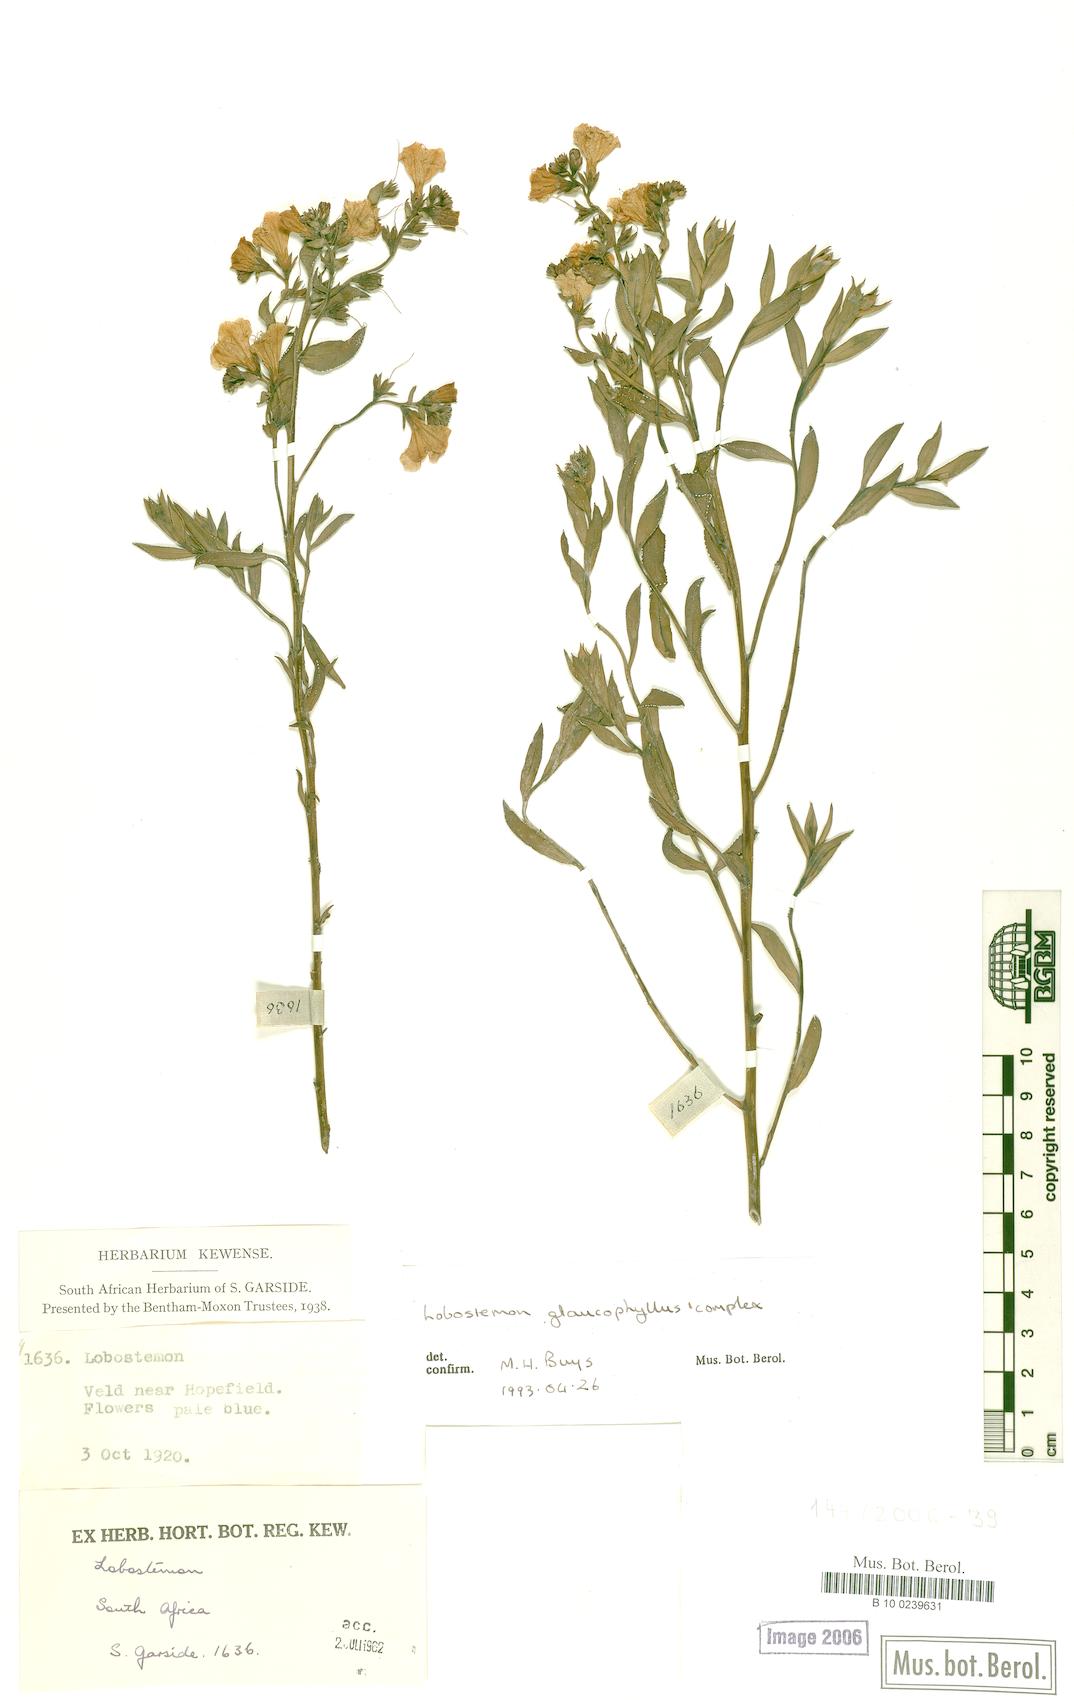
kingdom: Plantae
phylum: Tracheophyta
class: Magnoliopsida
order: Boraginales
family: Boraginaceae
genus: Lobostemon
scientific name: Lobostemon glaucophyllus
